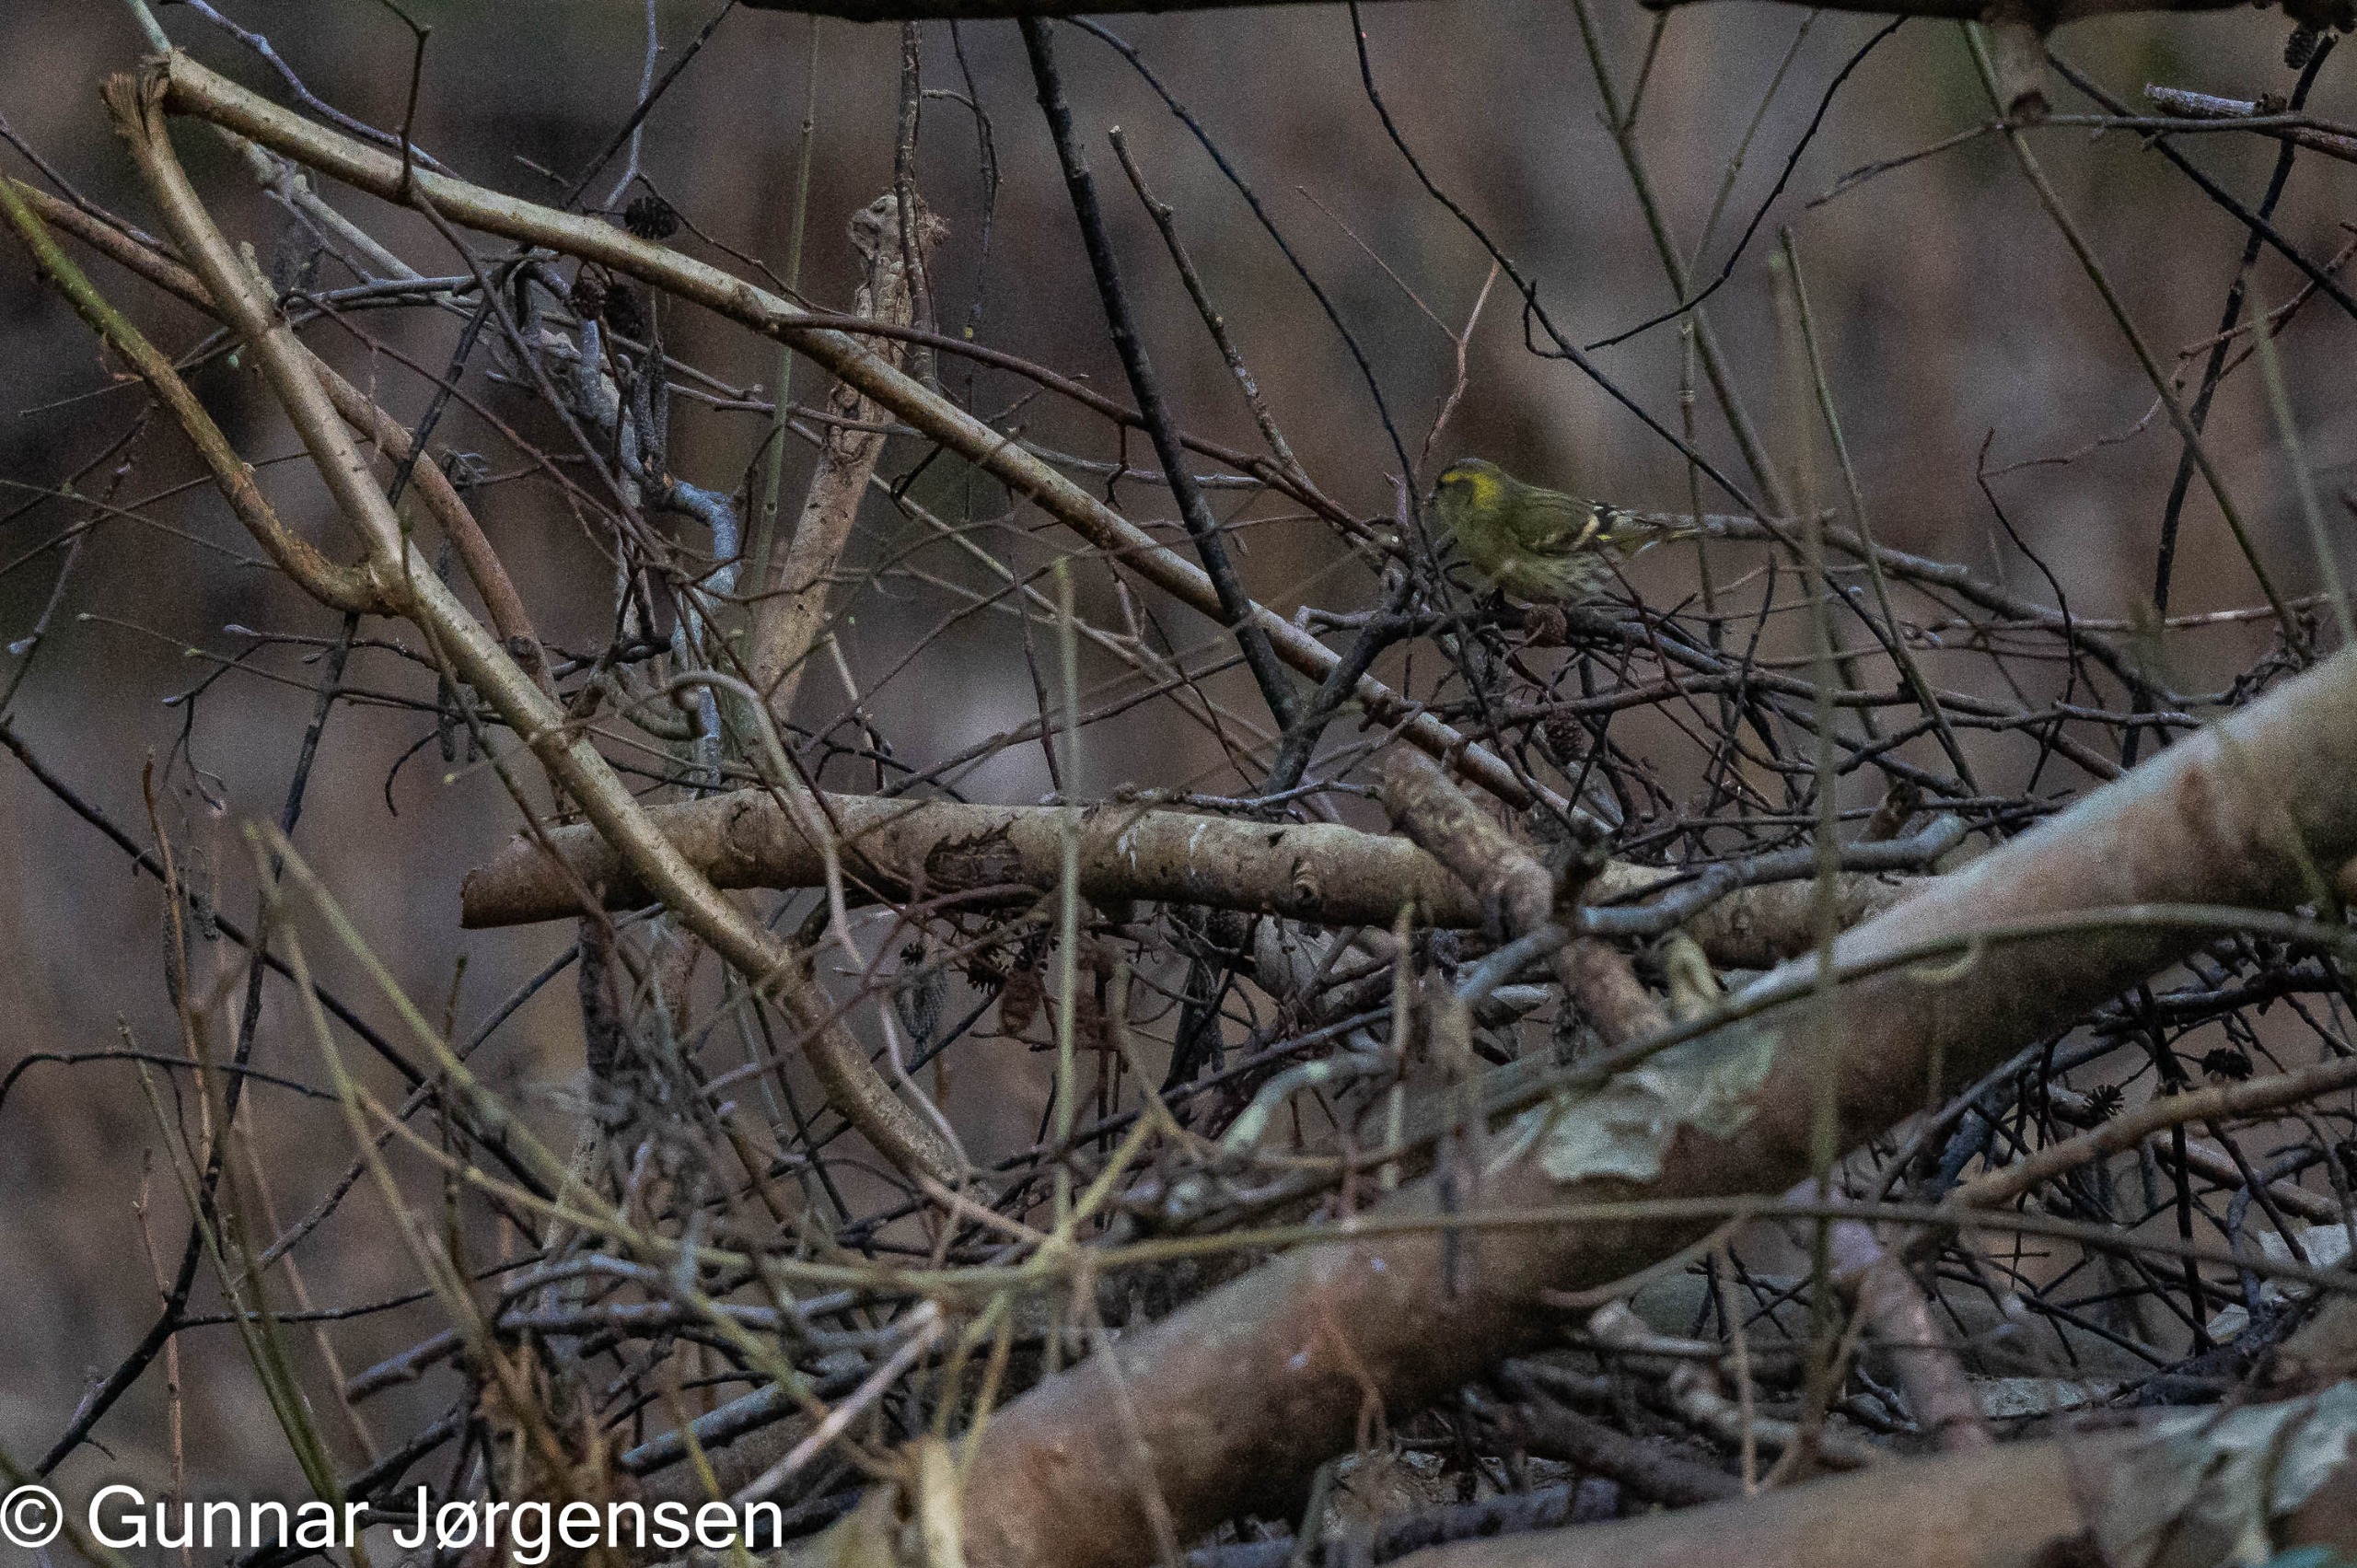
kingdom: Animalia
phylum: Chordata
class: Aves
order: Passeriformes
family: Fringillidae
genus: Spinus
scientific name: Spinus spinus
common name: Grønsisken
